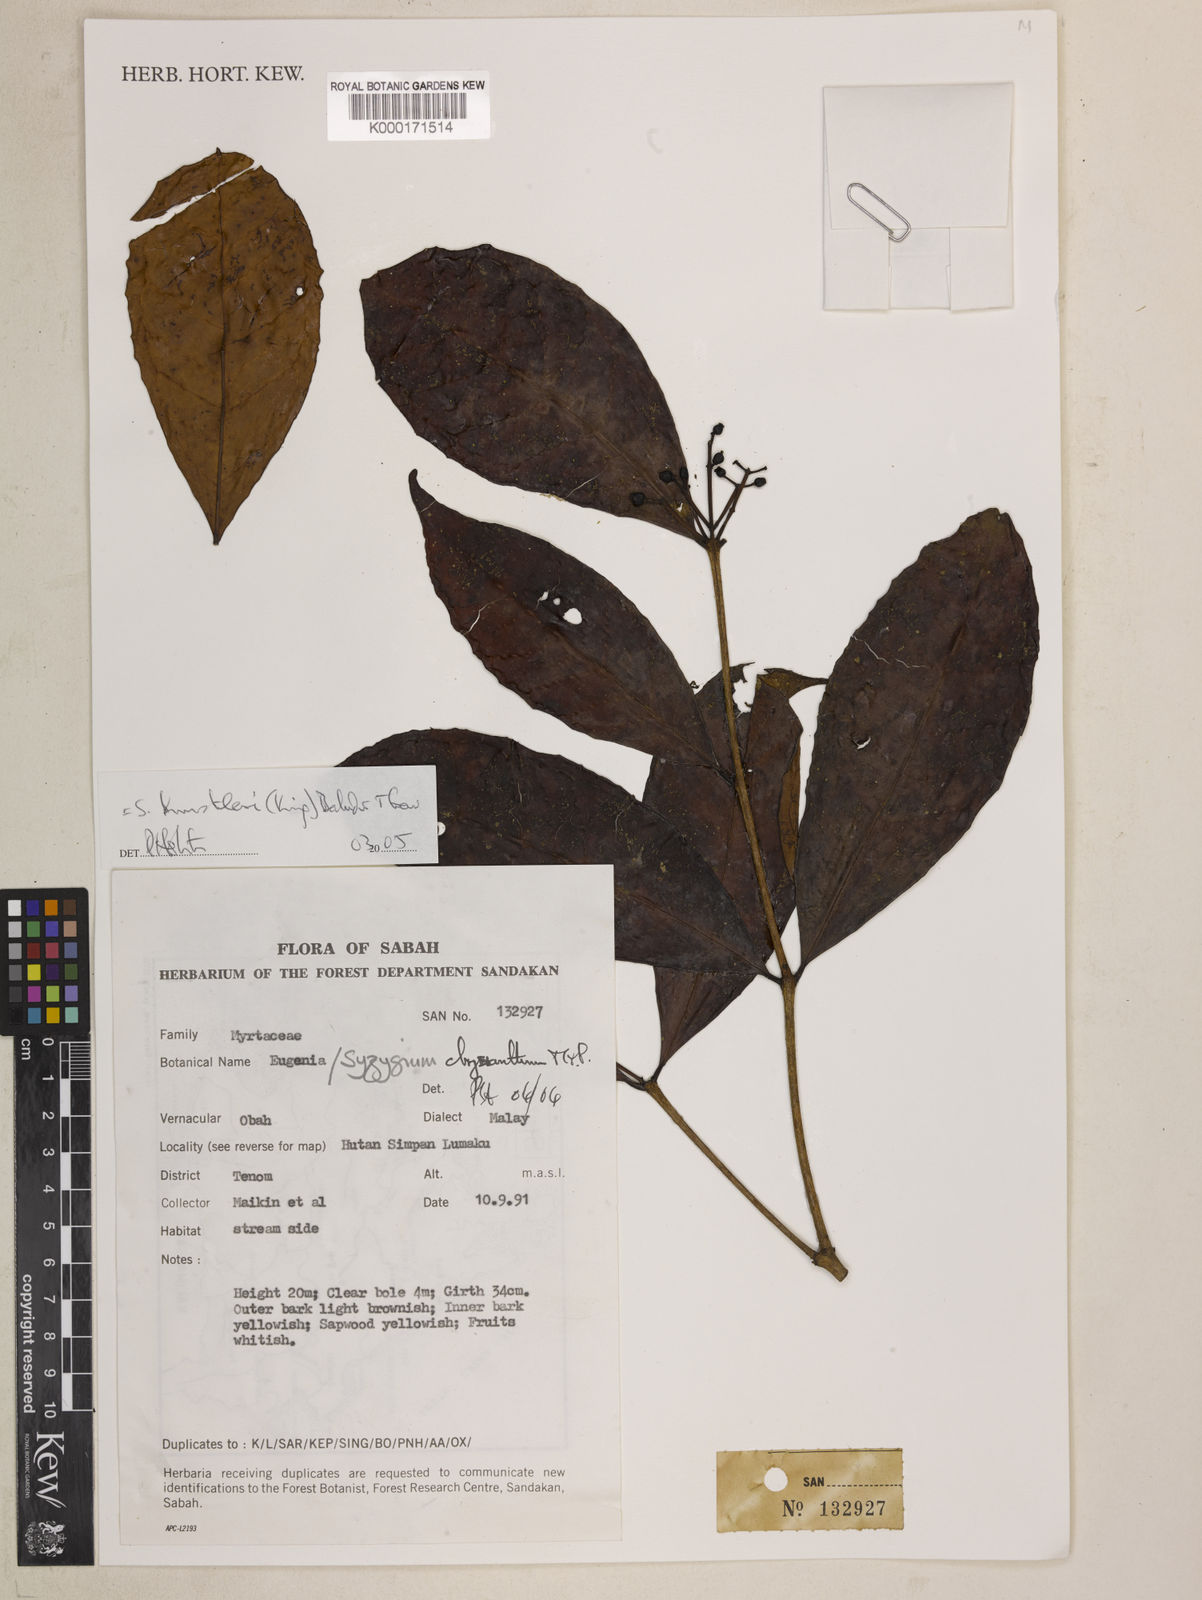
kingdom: Plantae
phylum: Tracheophyta
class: Magnoliopsida
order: Myrtales
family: Myrtaceae
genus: Syzygium
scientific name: Syzygium caudatilimbum
